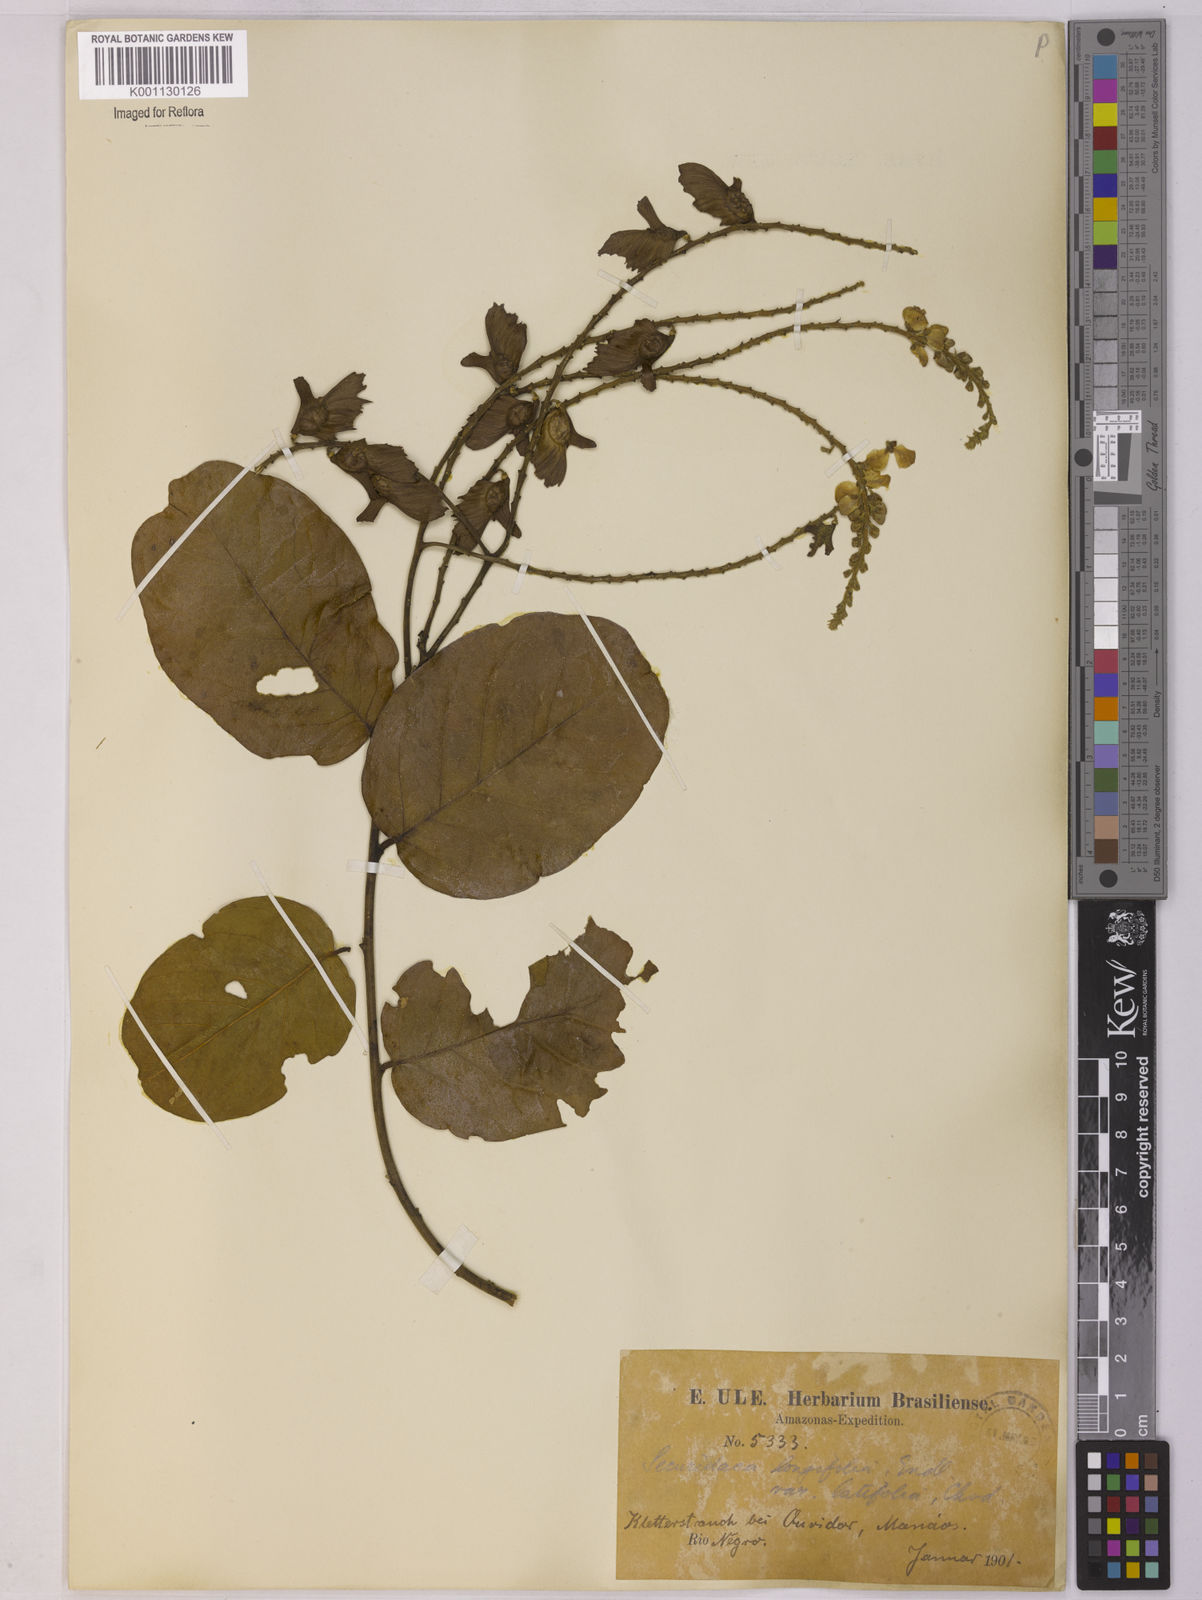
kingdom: Plantae
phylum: Tracheophyta
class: Magnoliopsida
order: Fabales
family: Polygalaceae
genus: Securidaca
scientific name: Securidaca longifolia
